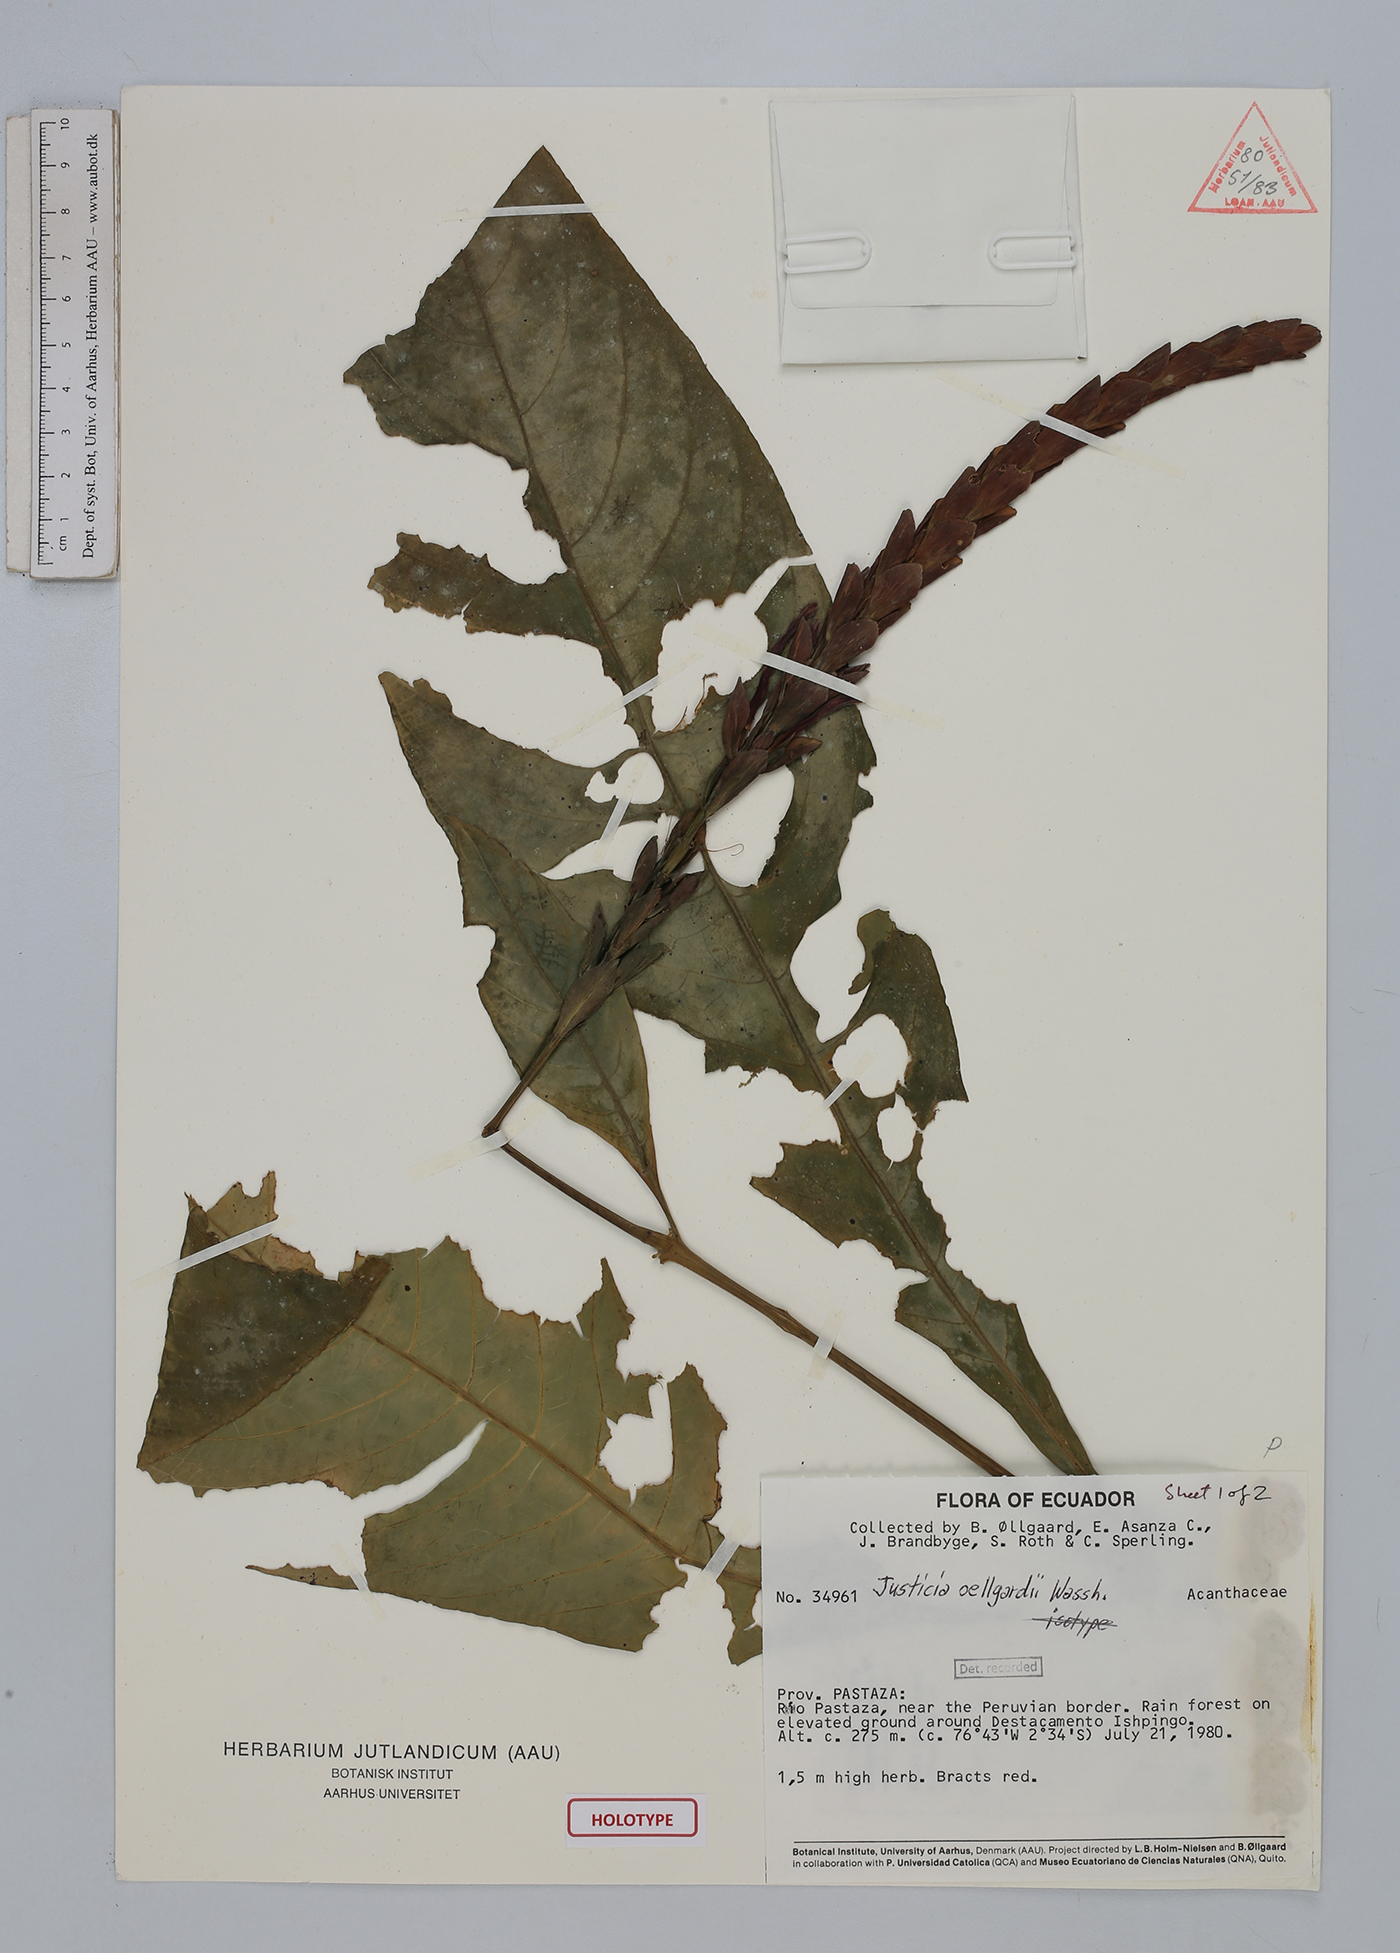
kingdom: Plantae
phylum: Tracheophyta
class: Magnoliopsida
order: Lamiales
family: Acanthaceae
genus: Justicia
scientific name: Justicia oellgaardii
